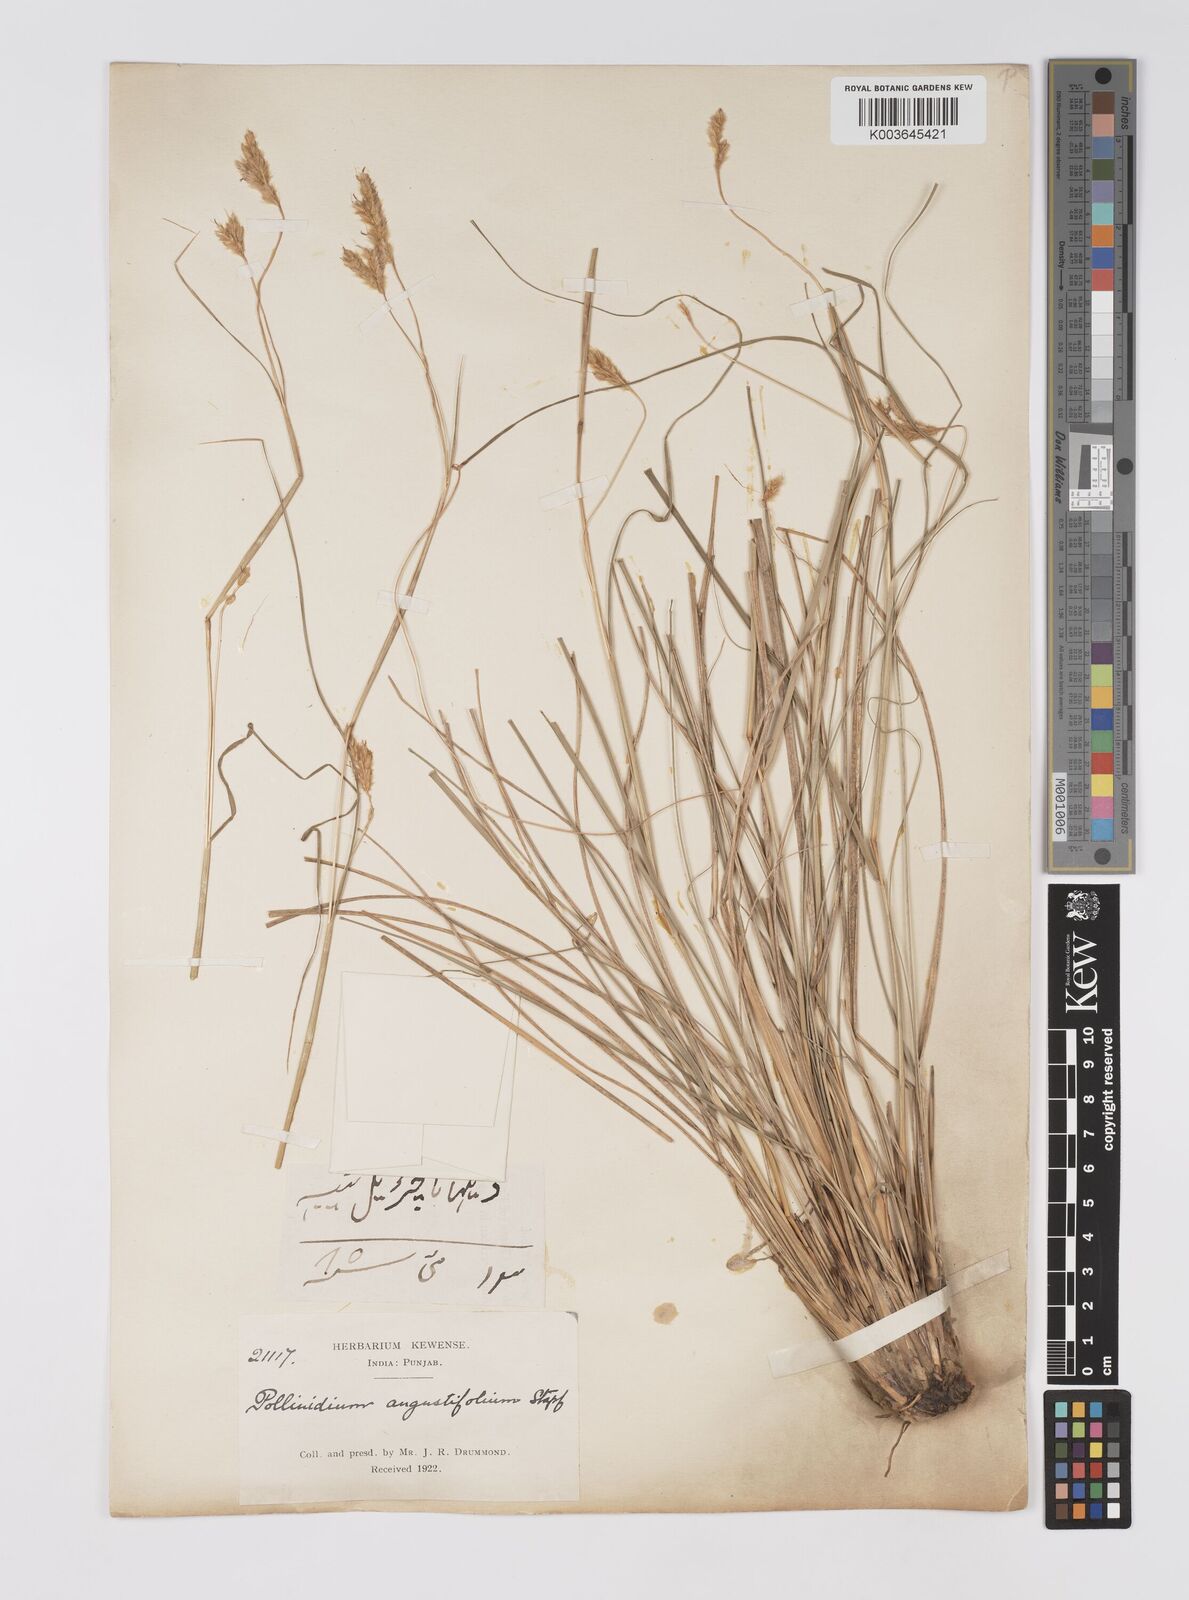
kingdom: Plantae
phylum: Tracheophyta
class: Liliopsida
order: Poales
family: Poaceae
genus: Eulaliopsis
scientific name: Eulaliopsis sykesii
